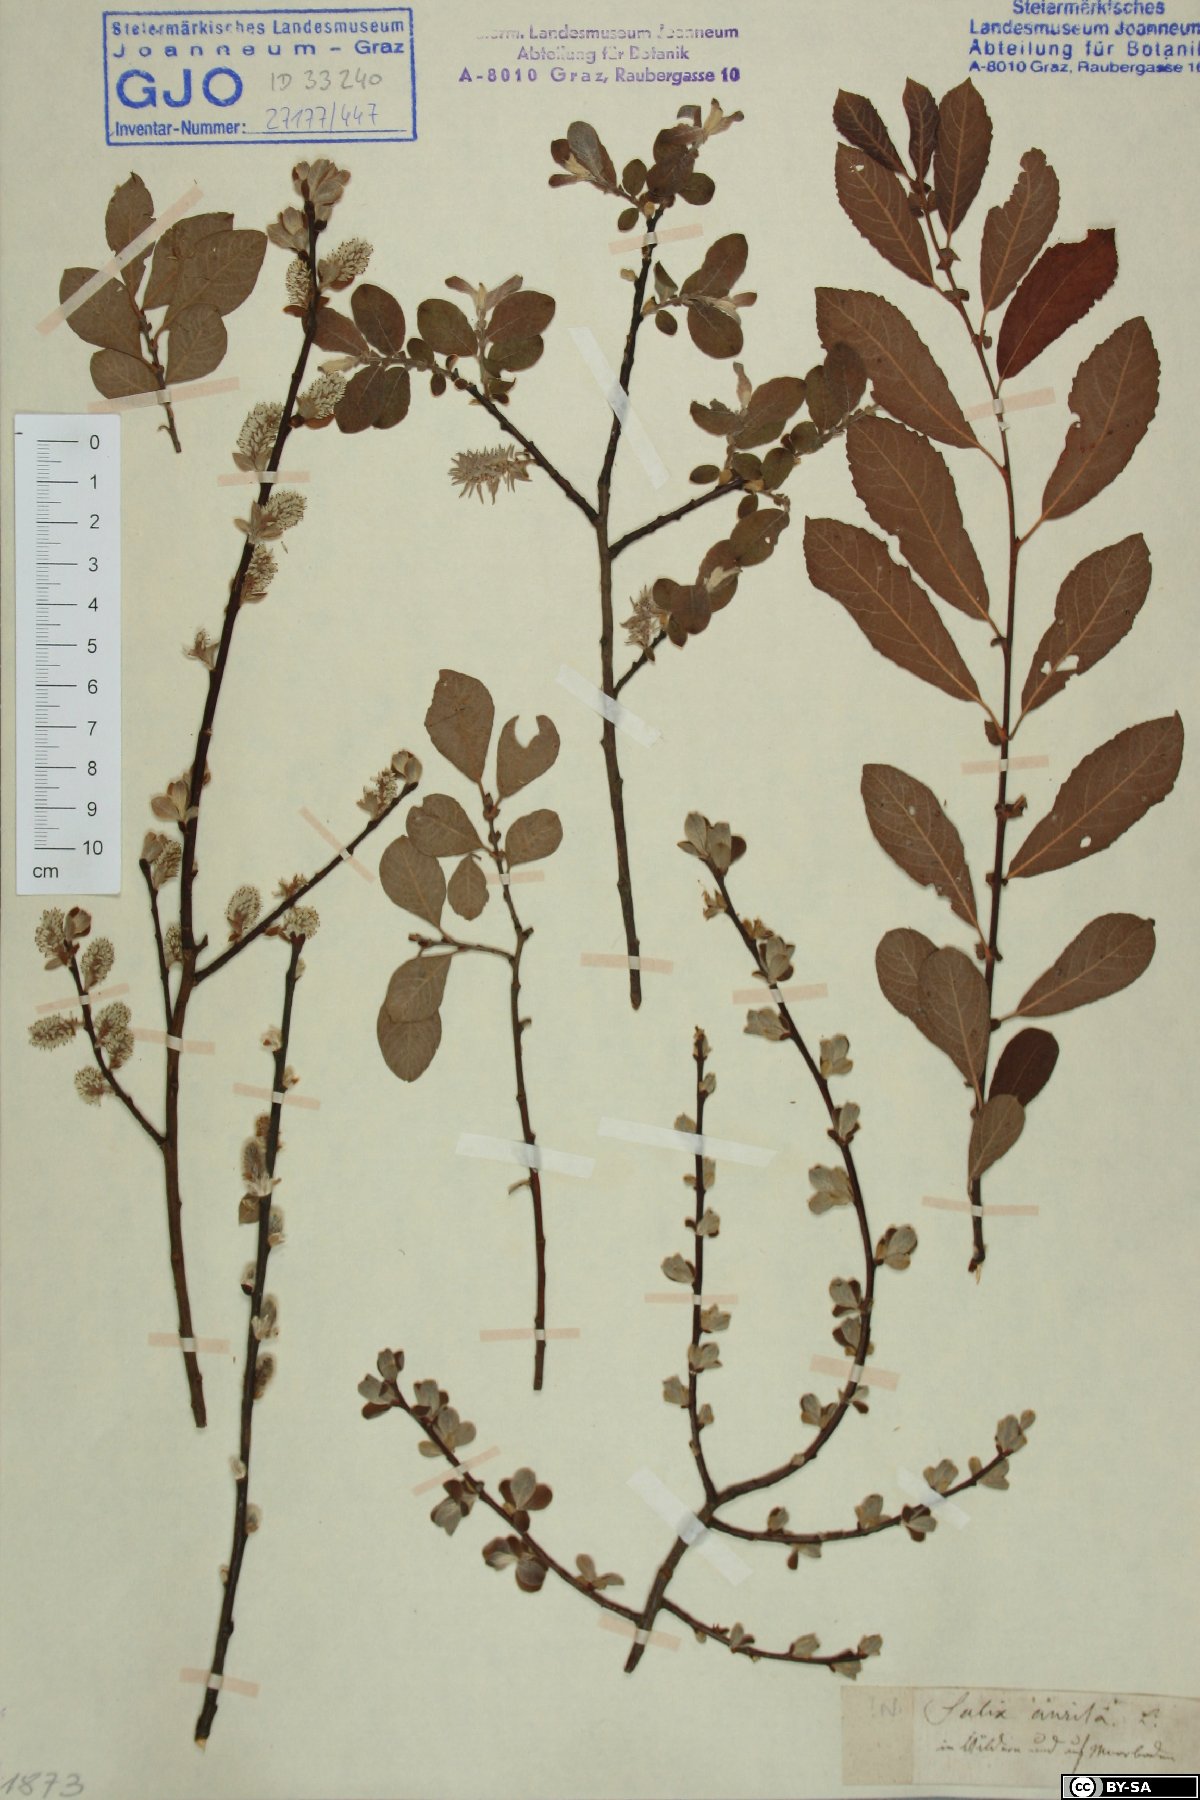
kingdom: Plantae
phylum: Tracheophyta
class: Magnoliopsida
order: Malpighiales
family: Salicaceae
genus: Salix
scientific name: Salix aurita
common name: Eared willow
